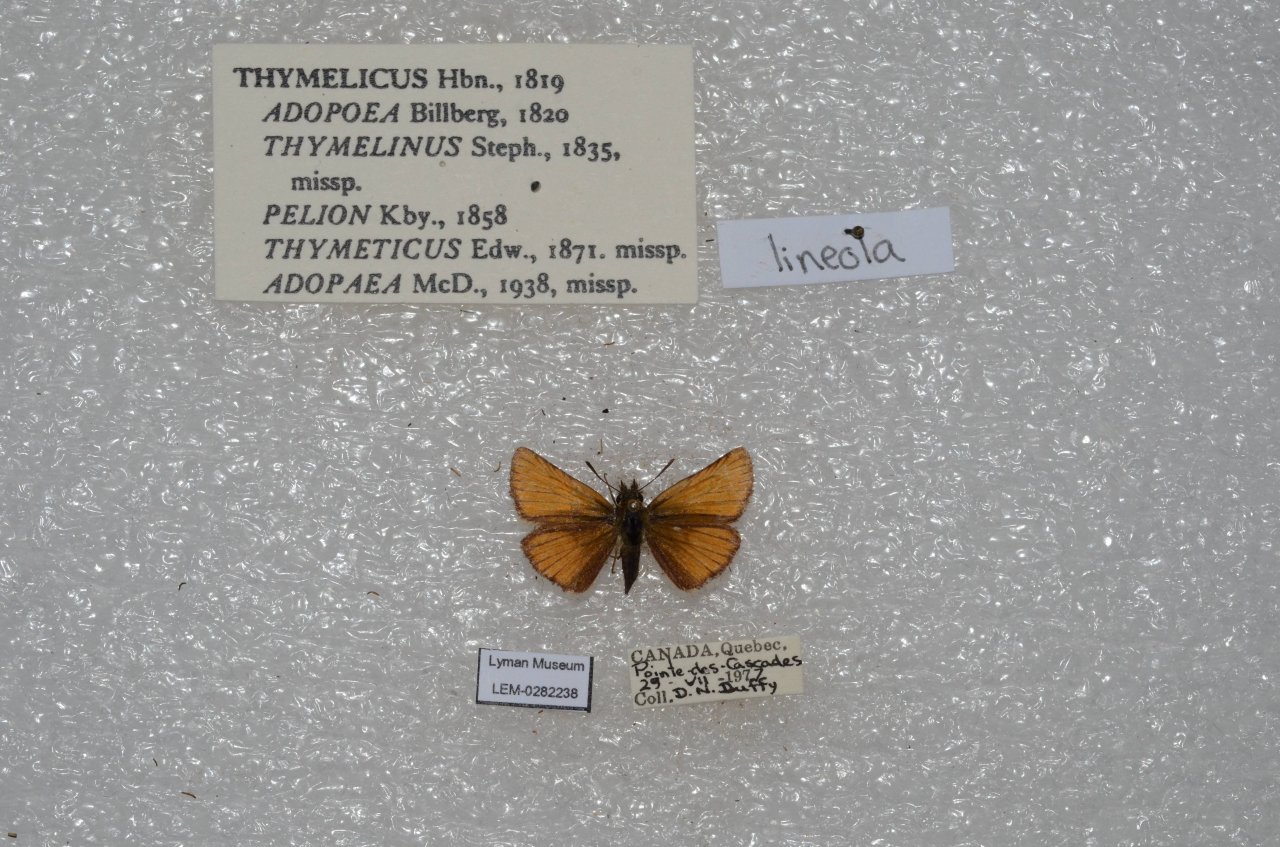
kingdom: Animalia
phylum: Arthropoda
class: Insecta
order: Lepidoptera
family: Hesperiidae
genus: Thymelicus
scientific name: Thymelicus lineola
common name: European Skipper
